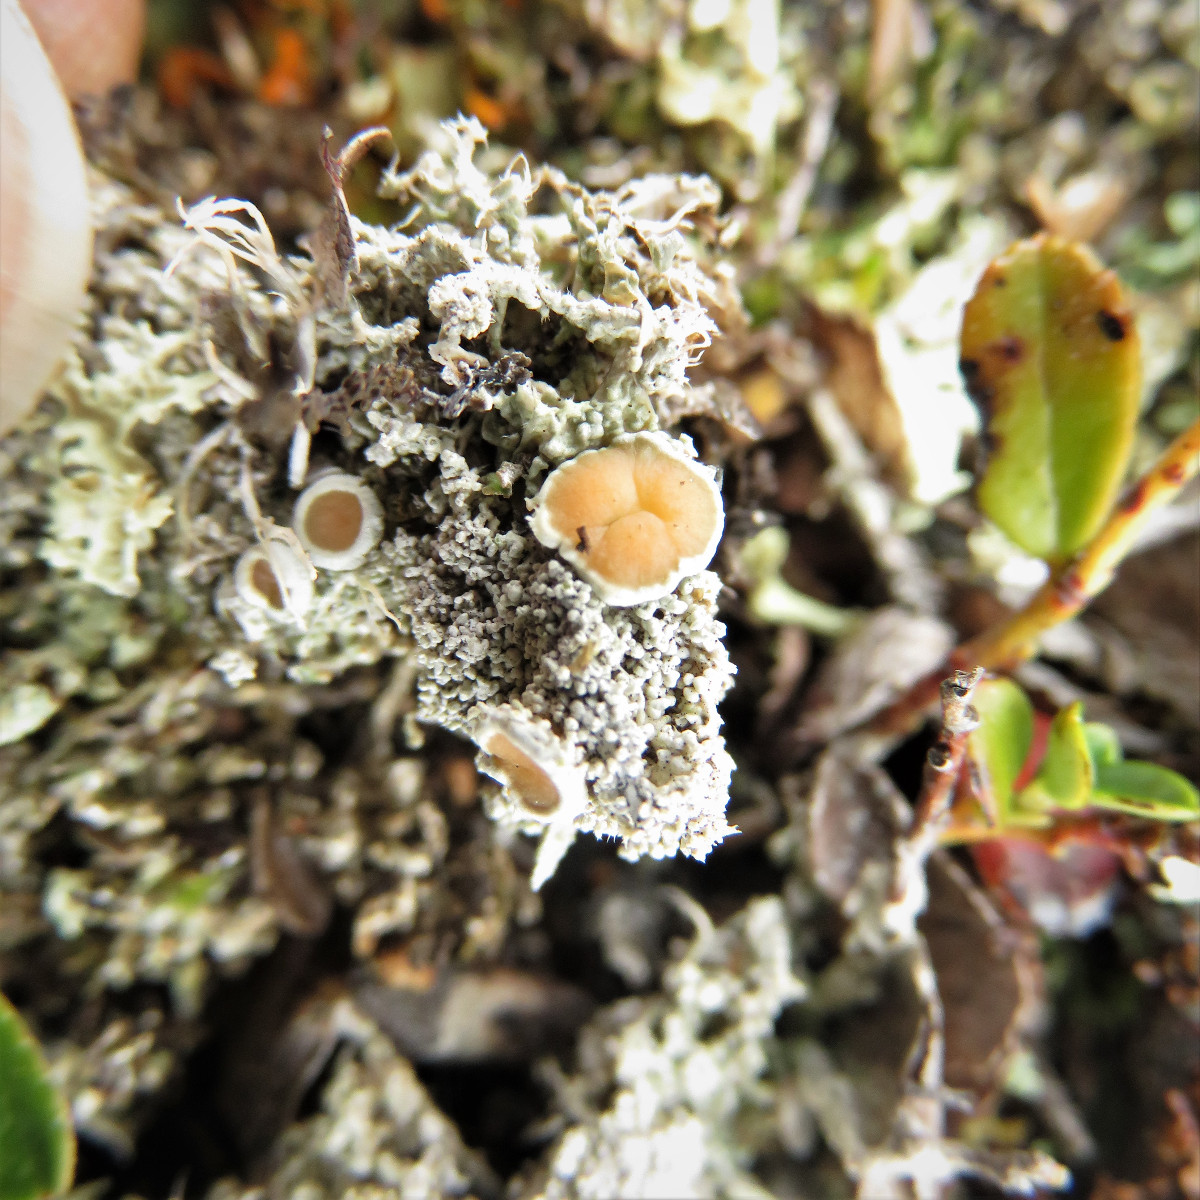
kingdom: Fungi
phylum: Ascomycota
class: Lecanoromycetes
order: Pertusariales
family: Ochrolechiaceae
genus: Ochrolechia
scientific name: Ochrolechia frigida
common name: fjeld-blegskivelav
